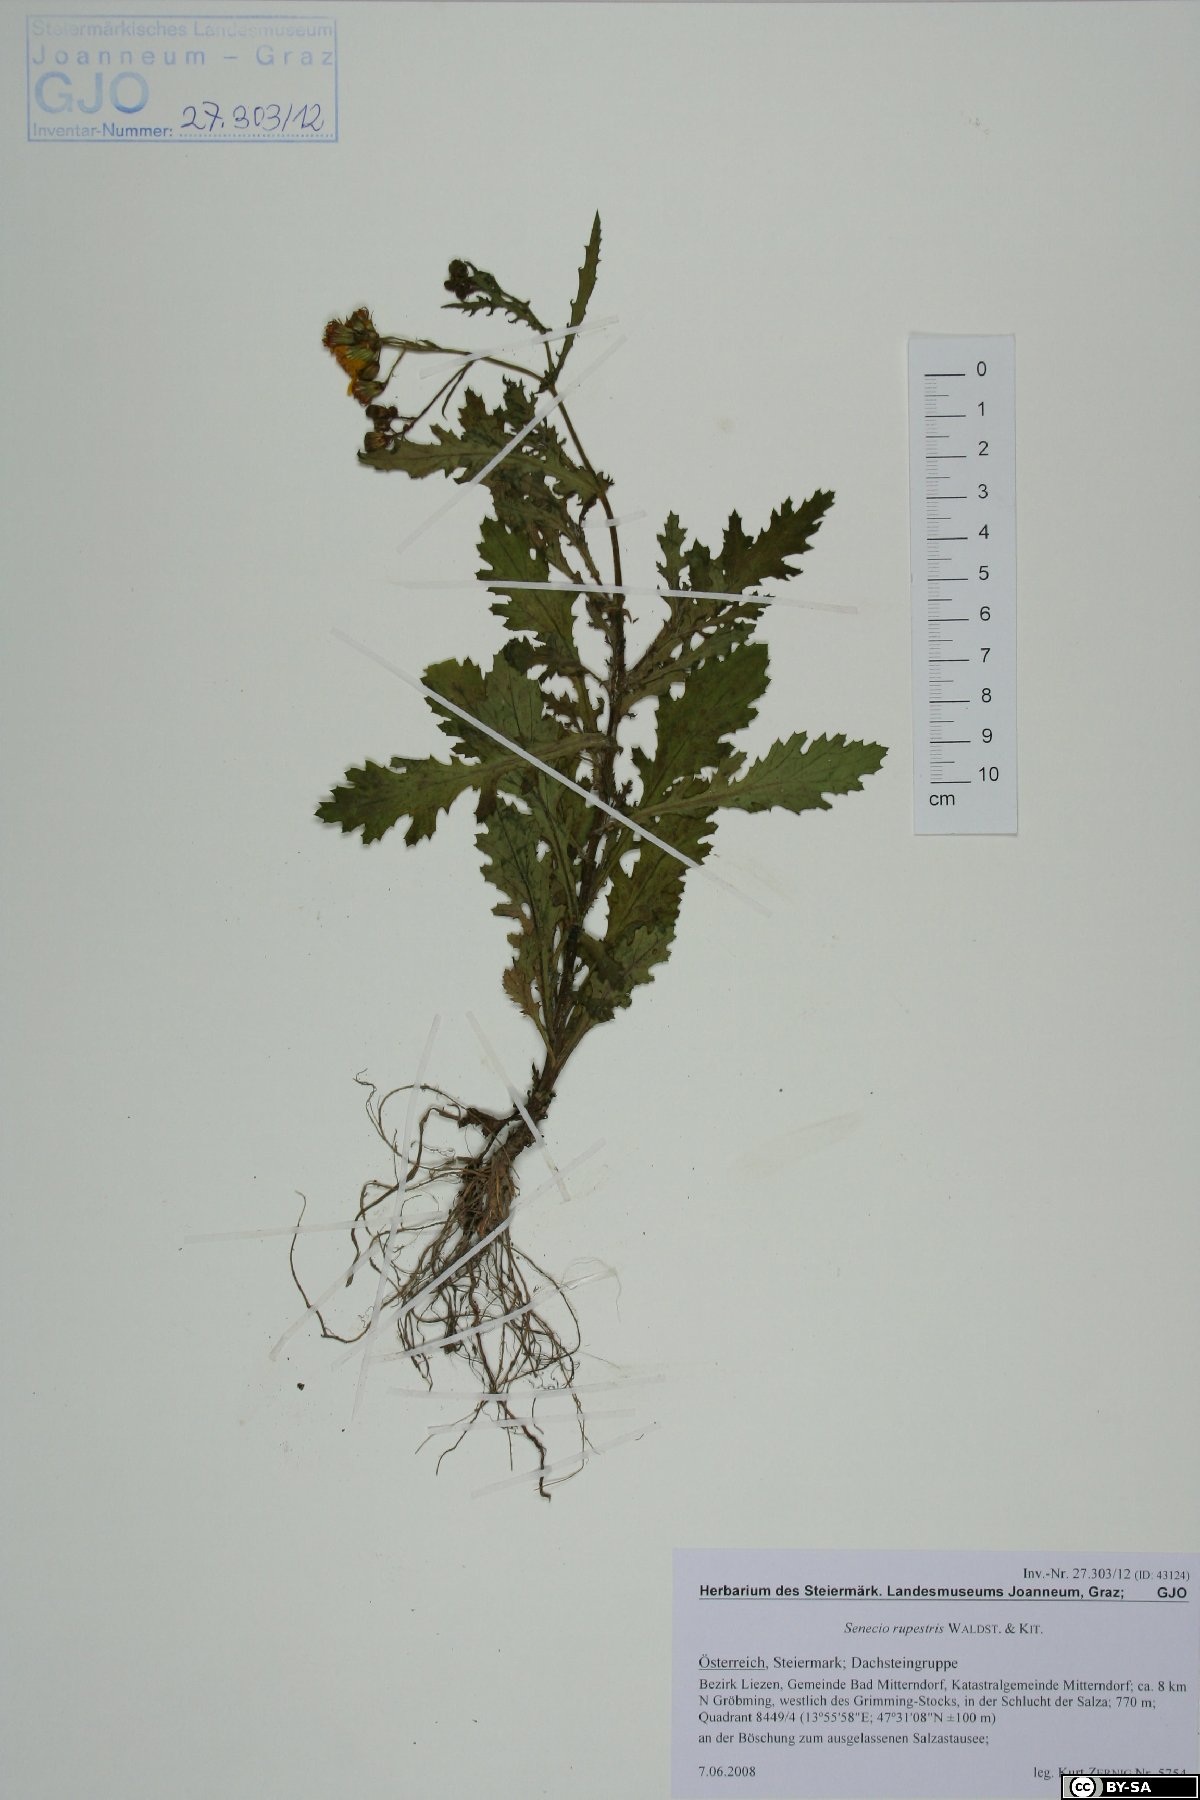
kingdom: Plantae
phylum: Tracheophyta
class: Magnoliopsida
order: Asterales
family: Asteraceae
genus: Senecio
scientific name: Senecio rupestris
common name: Rock ragwort
